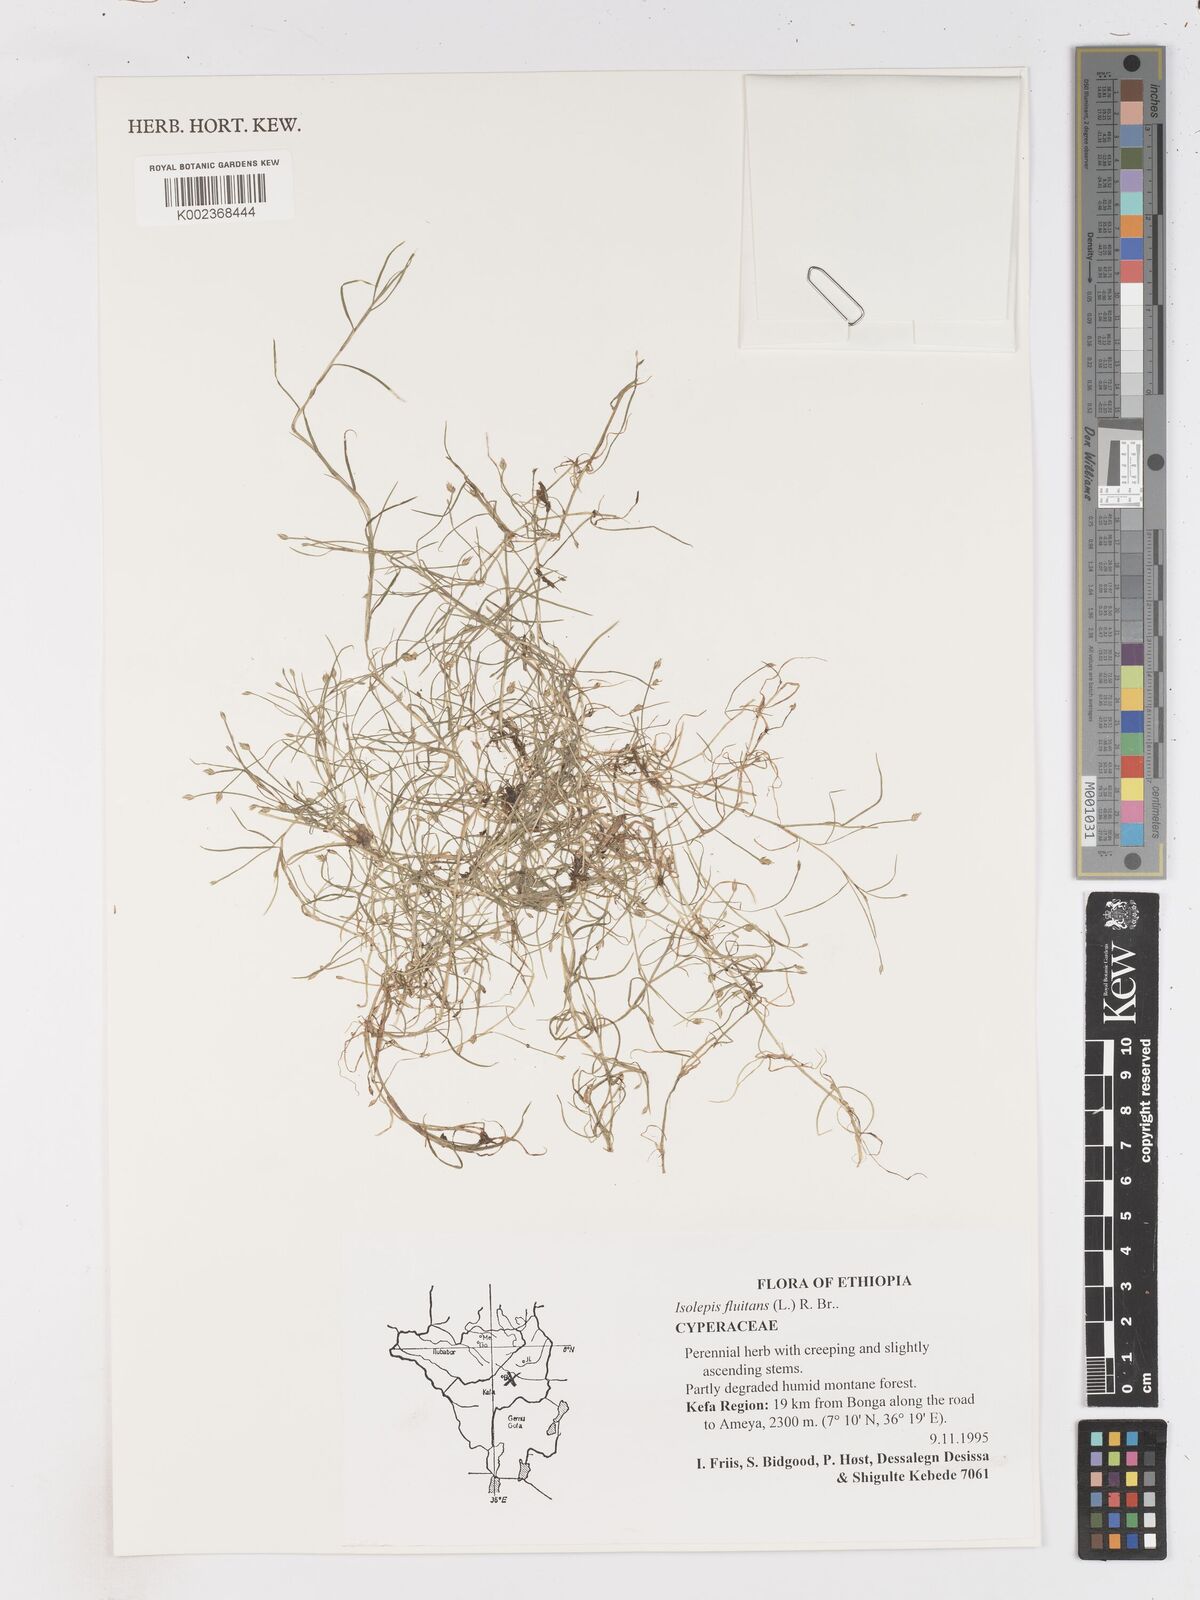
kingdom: Plantae
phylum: Tracheophyta
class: Liliopsida
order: Poales
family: Cyperaceae
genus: Isolepis
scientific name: Isolepis fluitans
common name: Floating club-rush
